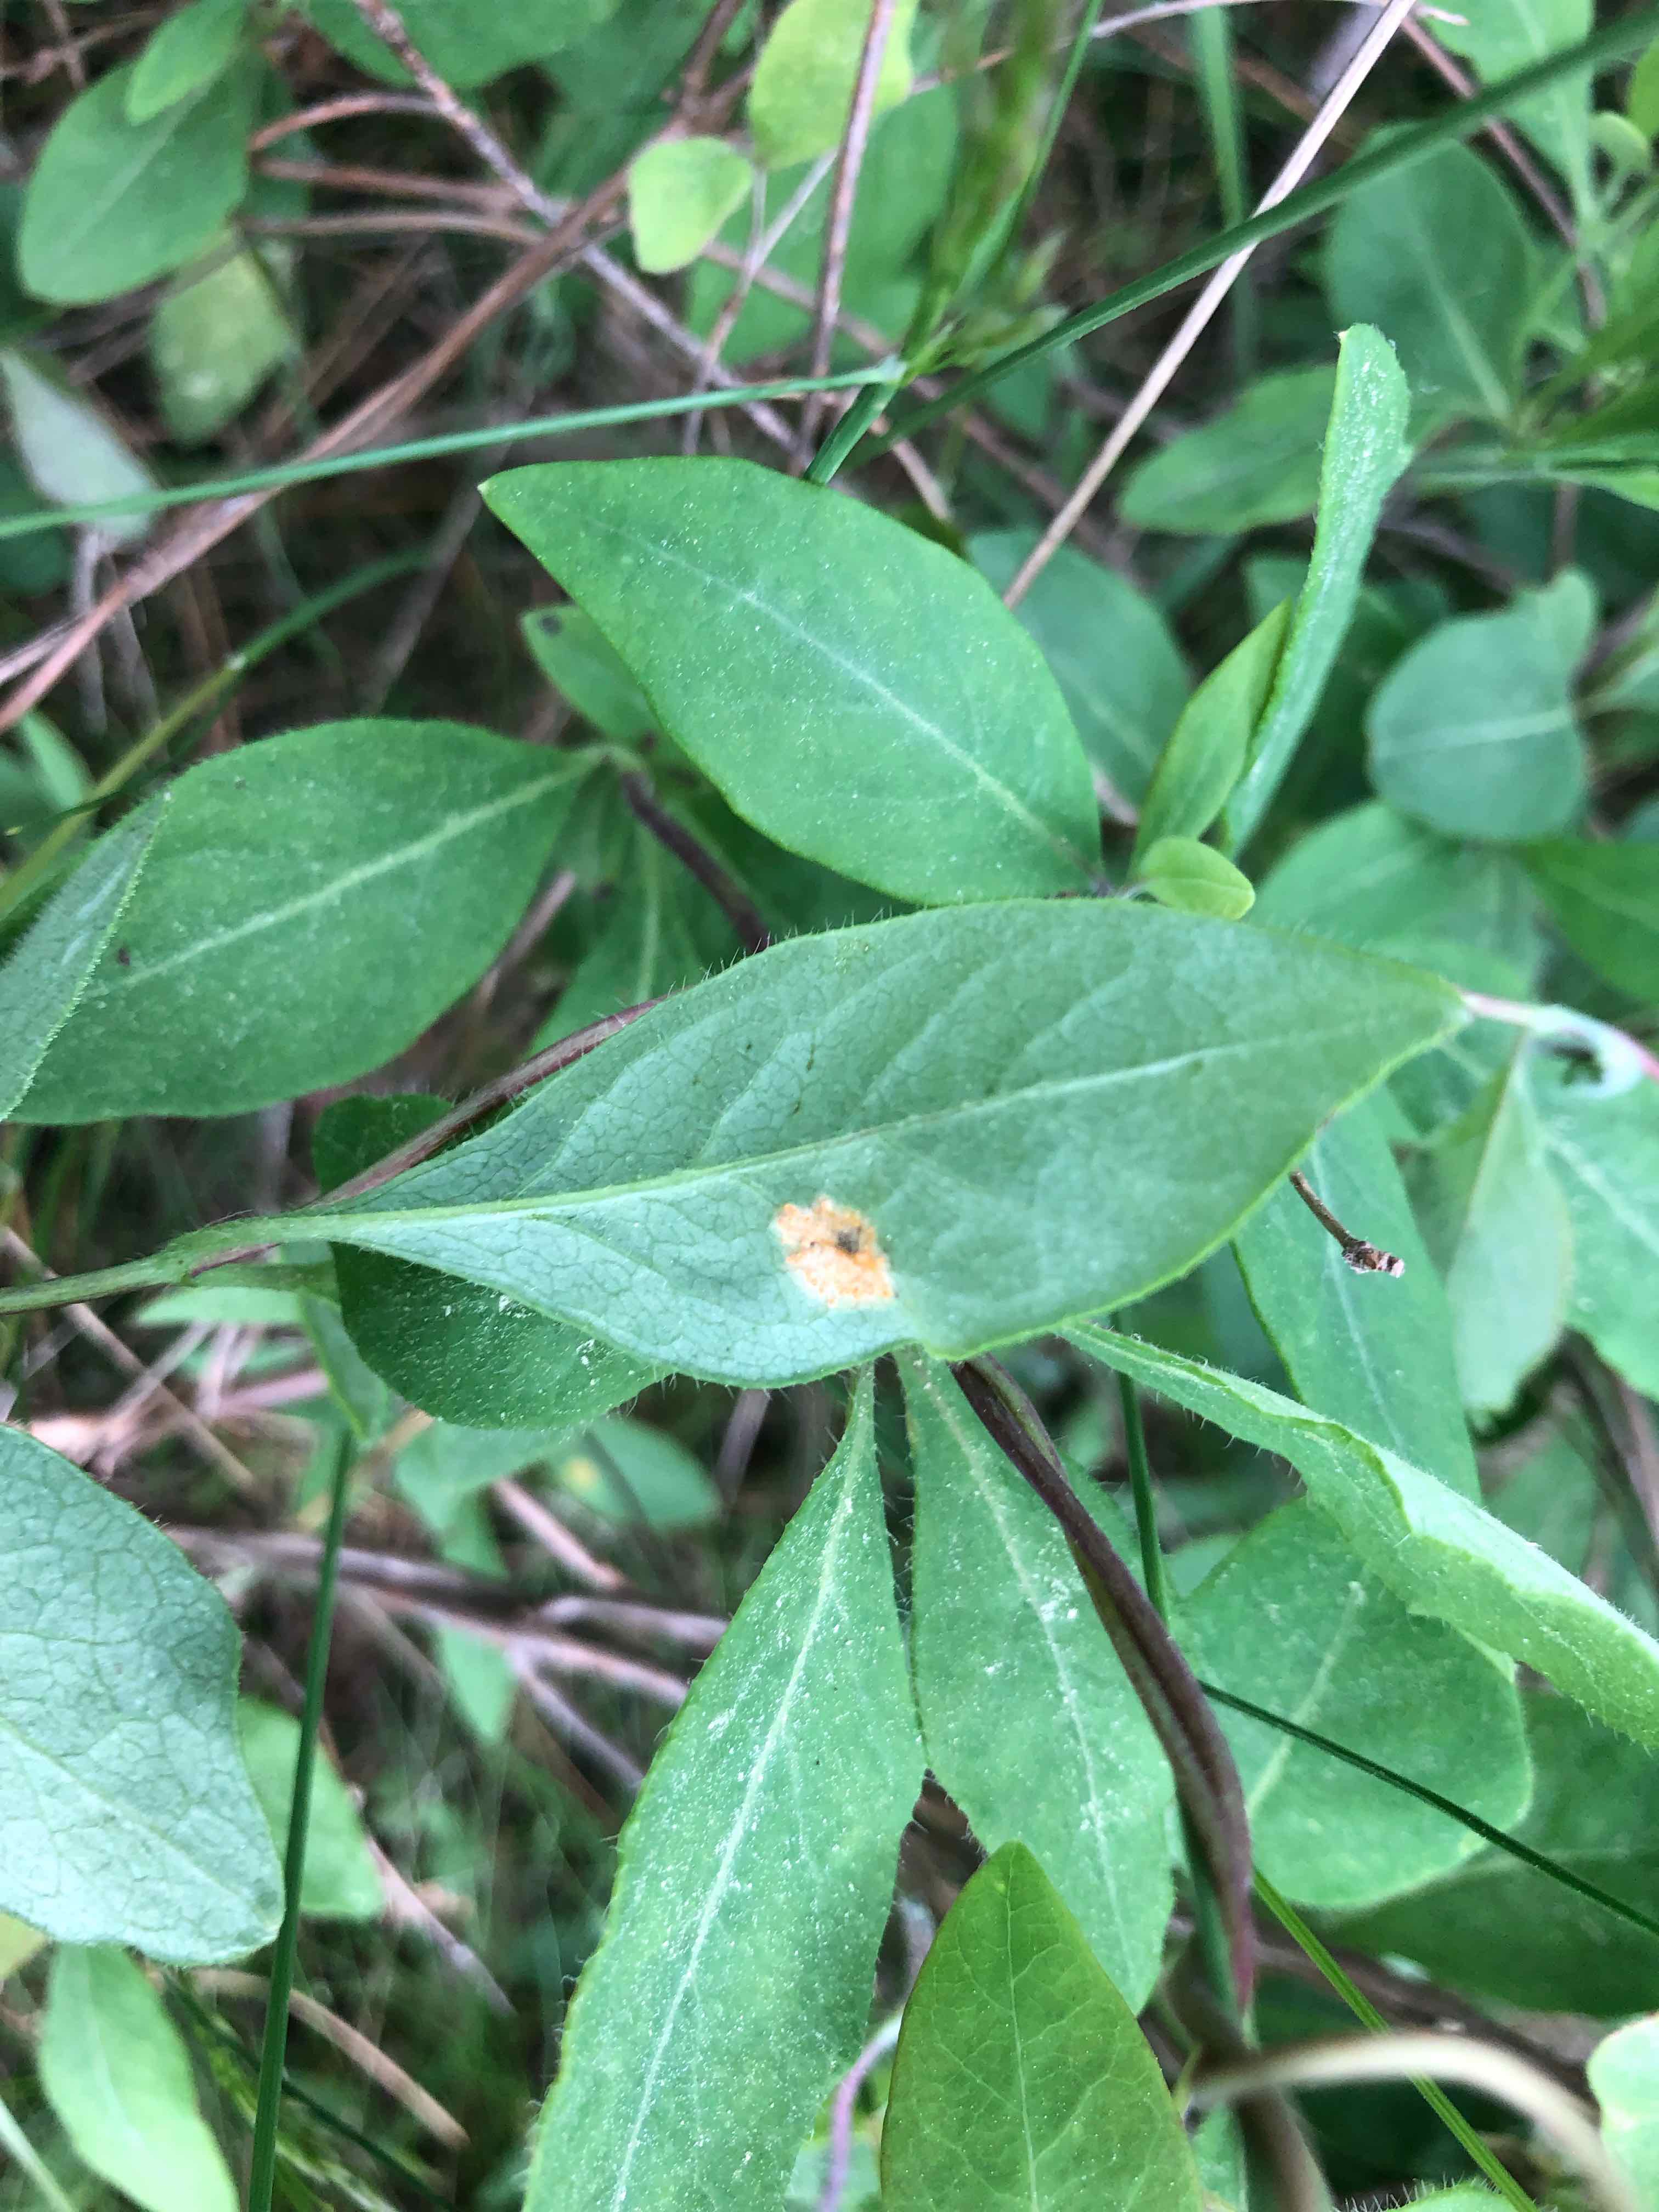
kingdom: Fungi
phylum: Basidiomycota
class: Pucciniomycetes
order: Pucciniales
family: Pucciniaceae
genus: Puccinia
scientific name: Puccinia festucae
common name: gedeblad-tvecellerust
